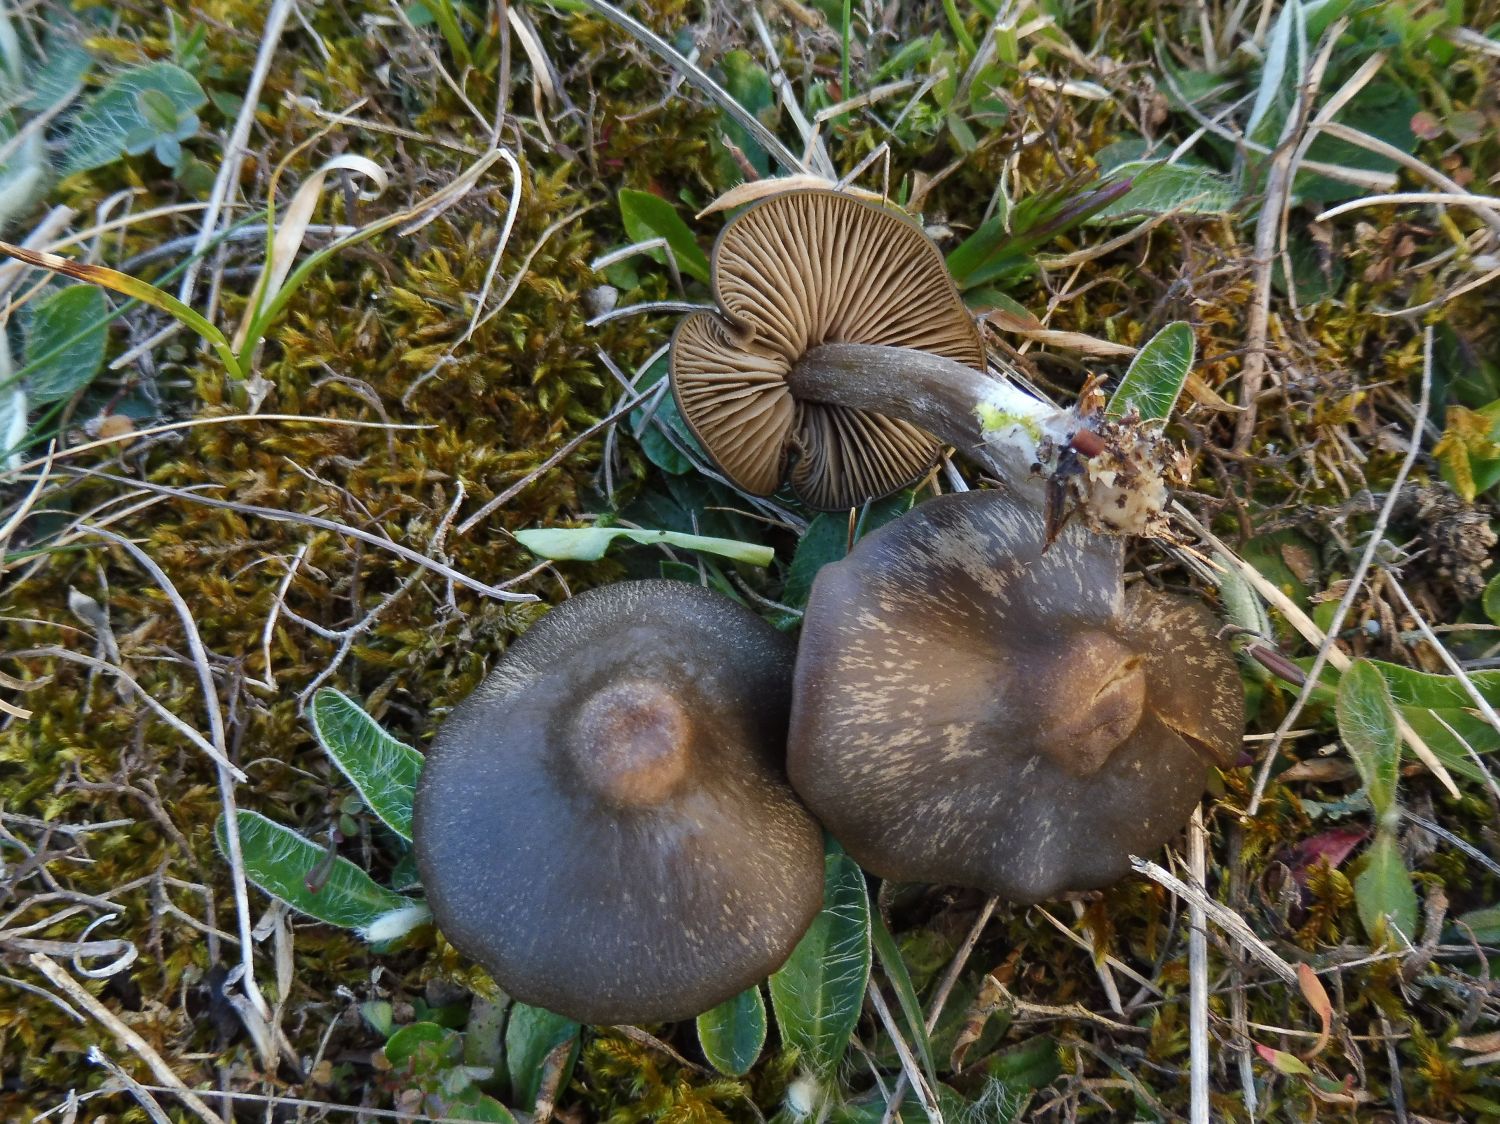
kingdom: Fungi
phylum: Basidiomycota
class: Agaricomycetes
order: Agaricales
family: Entolomataceae
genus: Entoloma
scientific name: Entoloma vernum
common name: vår-rødblad
